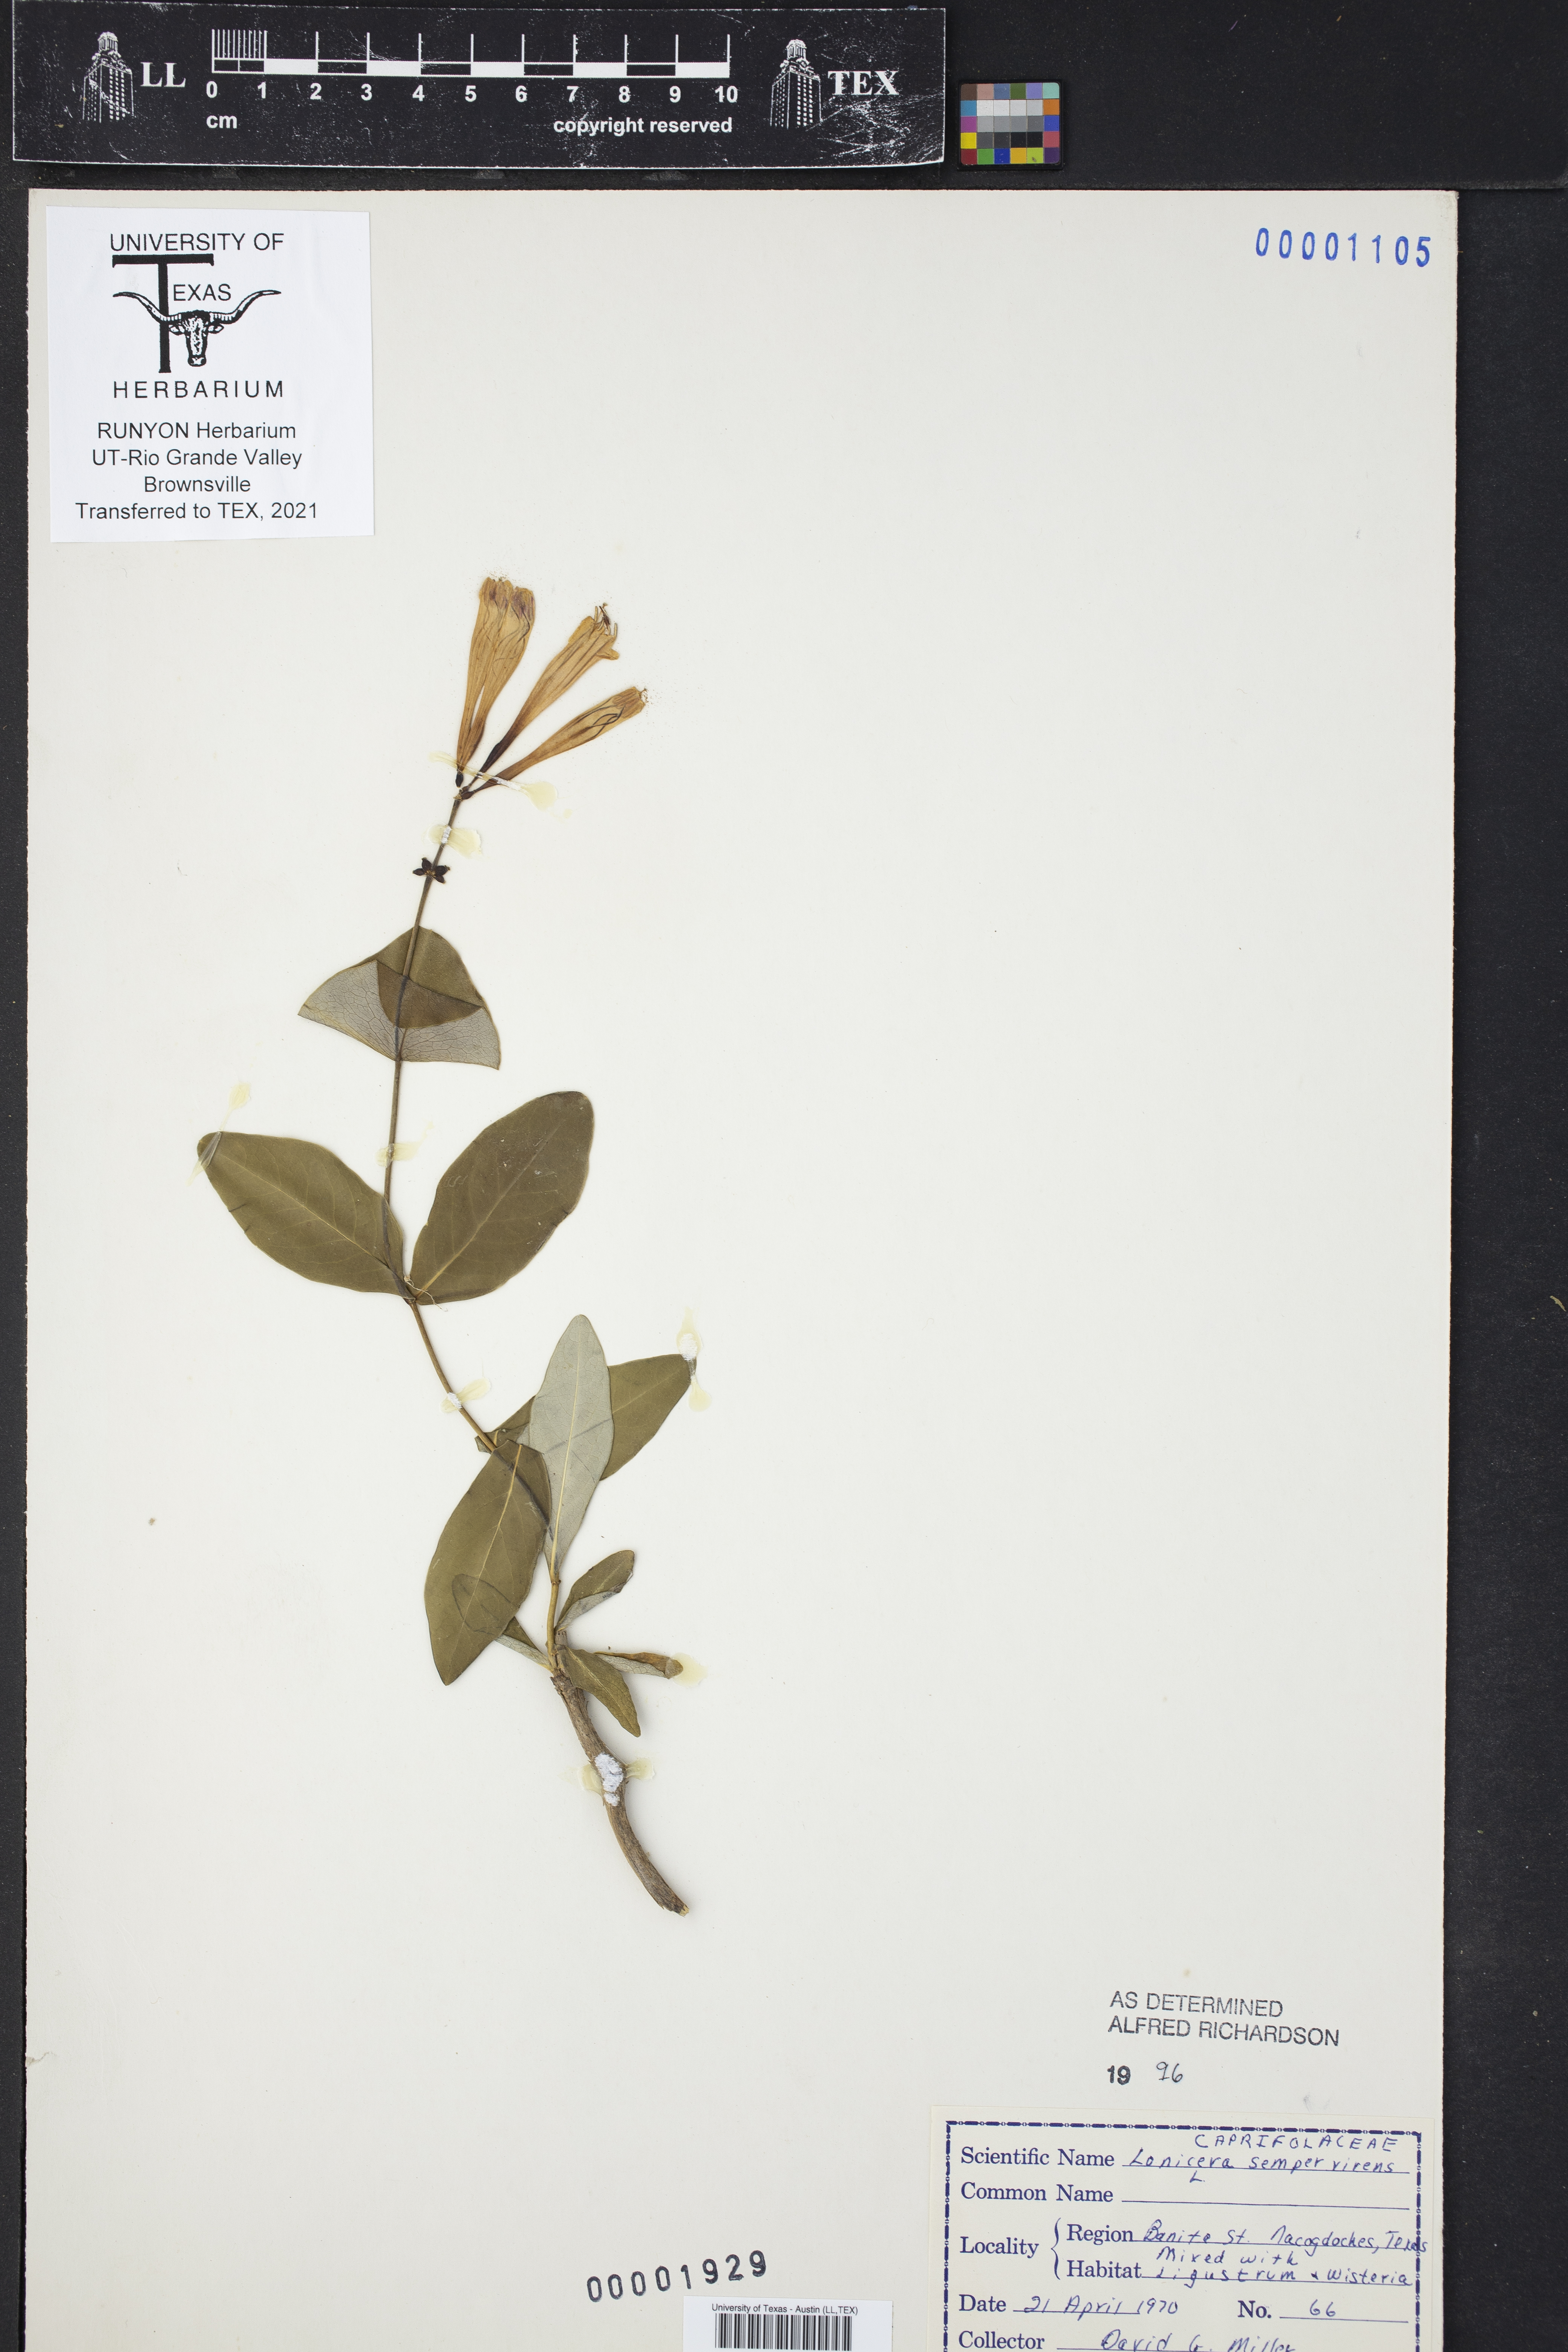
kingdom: Plantae
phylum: Tracheophyta
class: Magnoliopsida
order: Dipsacales
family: Caprifoliaceae
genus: Lonicera
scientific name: Lonicera sempervirens
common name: Coral honeysuckle
